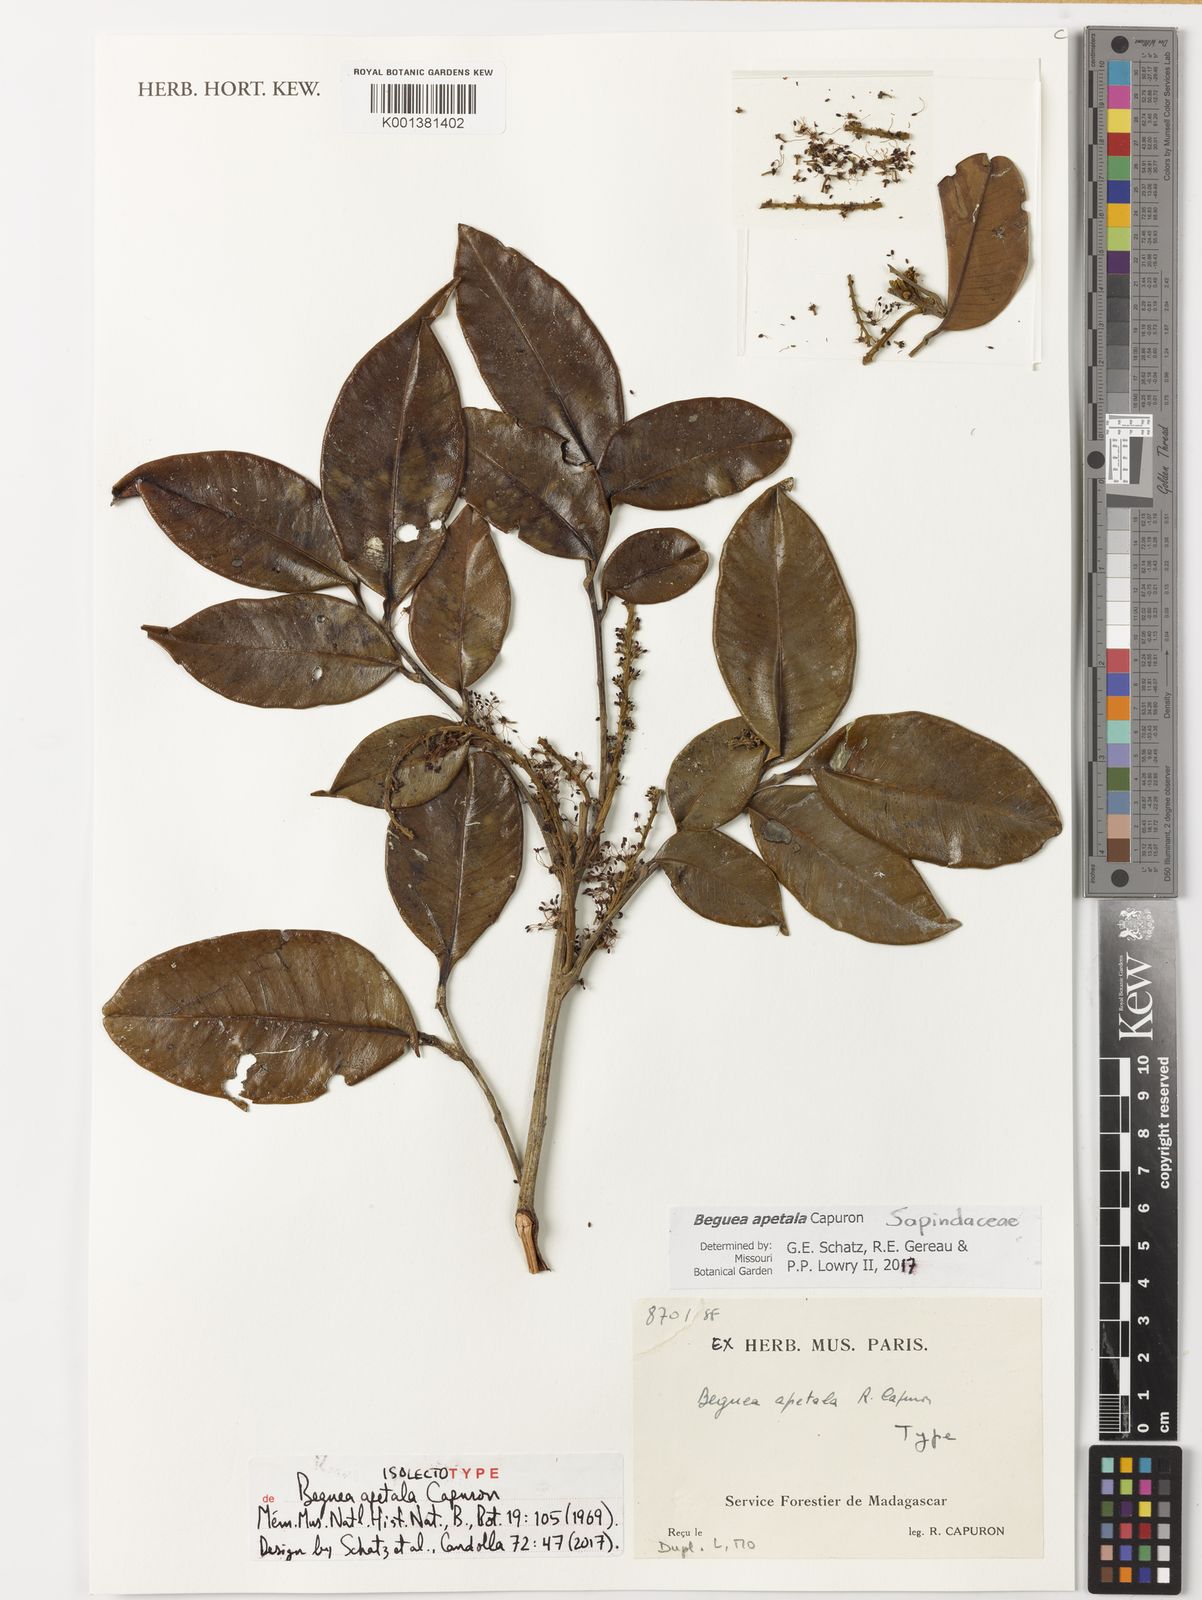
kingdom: Plantae
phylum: Tracheophyta
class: Magnoliopsida
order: Sapindales
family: Sapindaceae
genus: Beguea
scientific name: Beguea apetala
